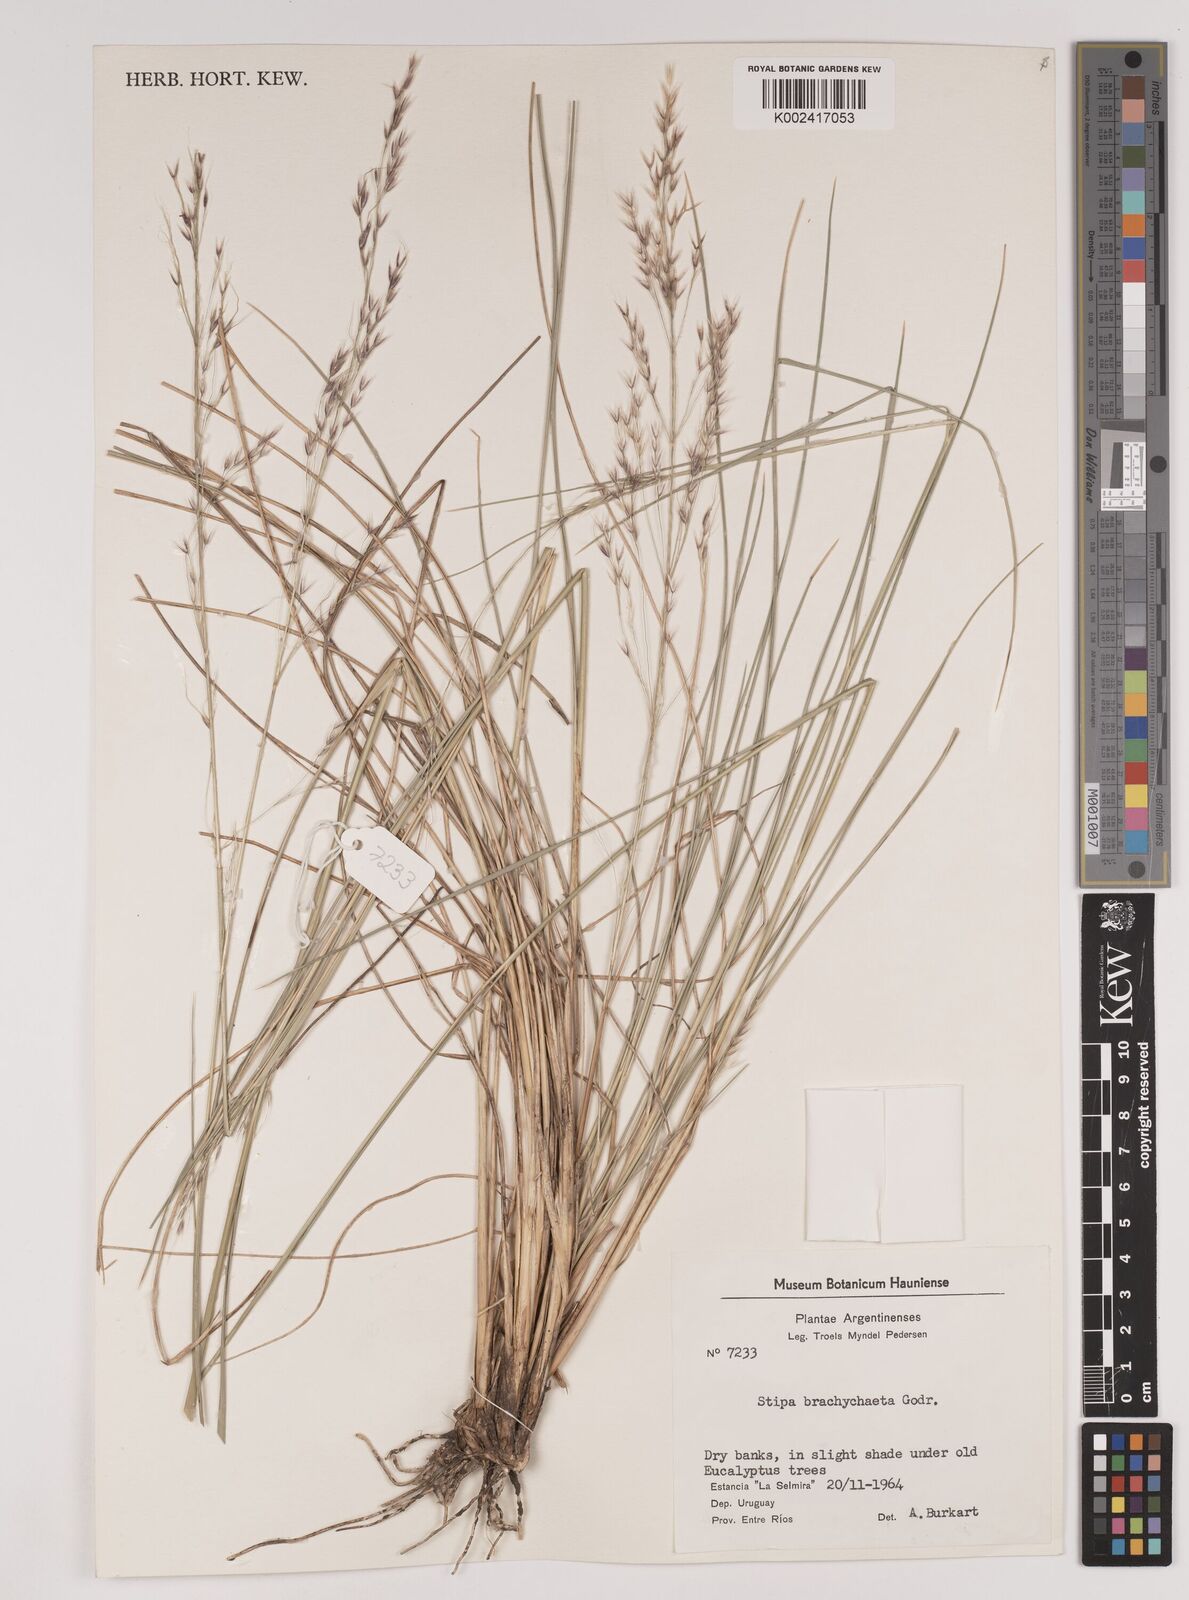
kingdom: Plantae
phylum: Tracheophyta
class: Liliopsida
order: Poales
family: Poaceae
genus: Amelichloa
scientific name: Amelichloa brachychaeta
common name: Shortbristled needlegrass
